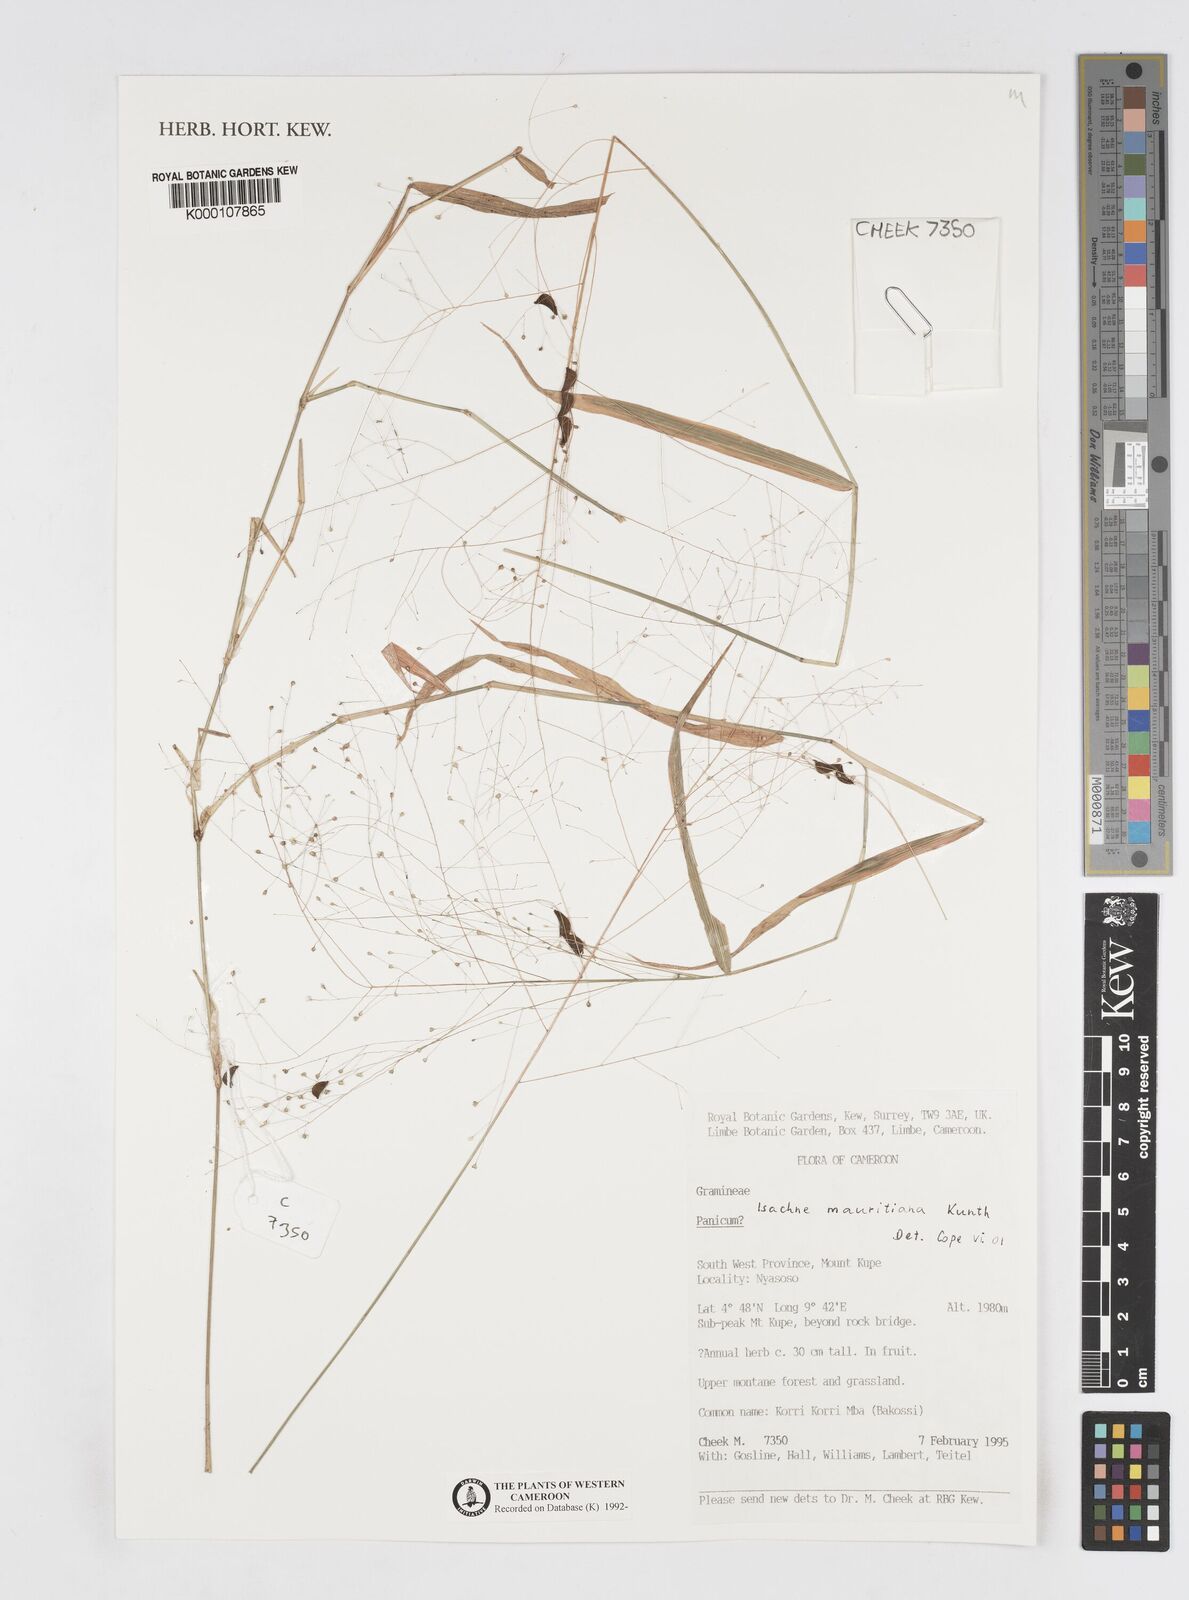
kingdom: Plantae
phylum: Tracheophyta
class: Liliopsida
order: Poales
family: Poaceae
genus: Isachne
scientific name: Isachne mauritiana
